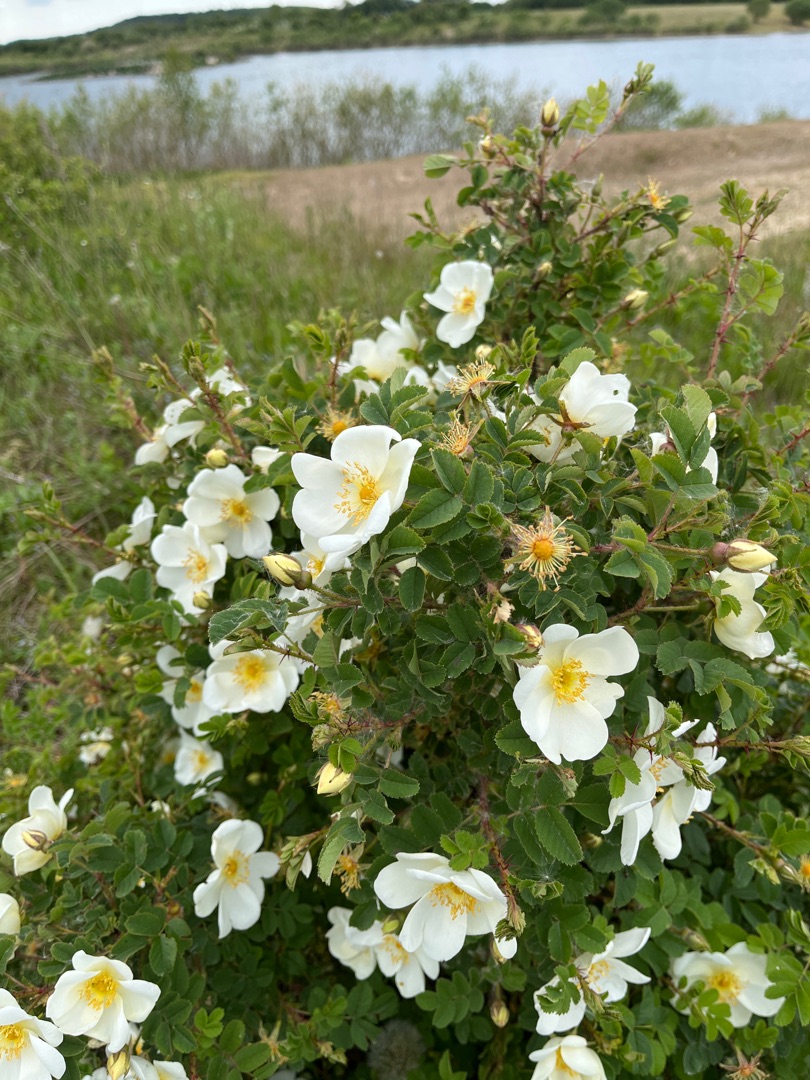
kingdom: Plantae
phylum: Tracheophyta
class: Magnoliopsida
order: Rosales
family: Rosaceae
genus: Rosa
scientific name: Rosa spinosissima
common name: Klit-rose
